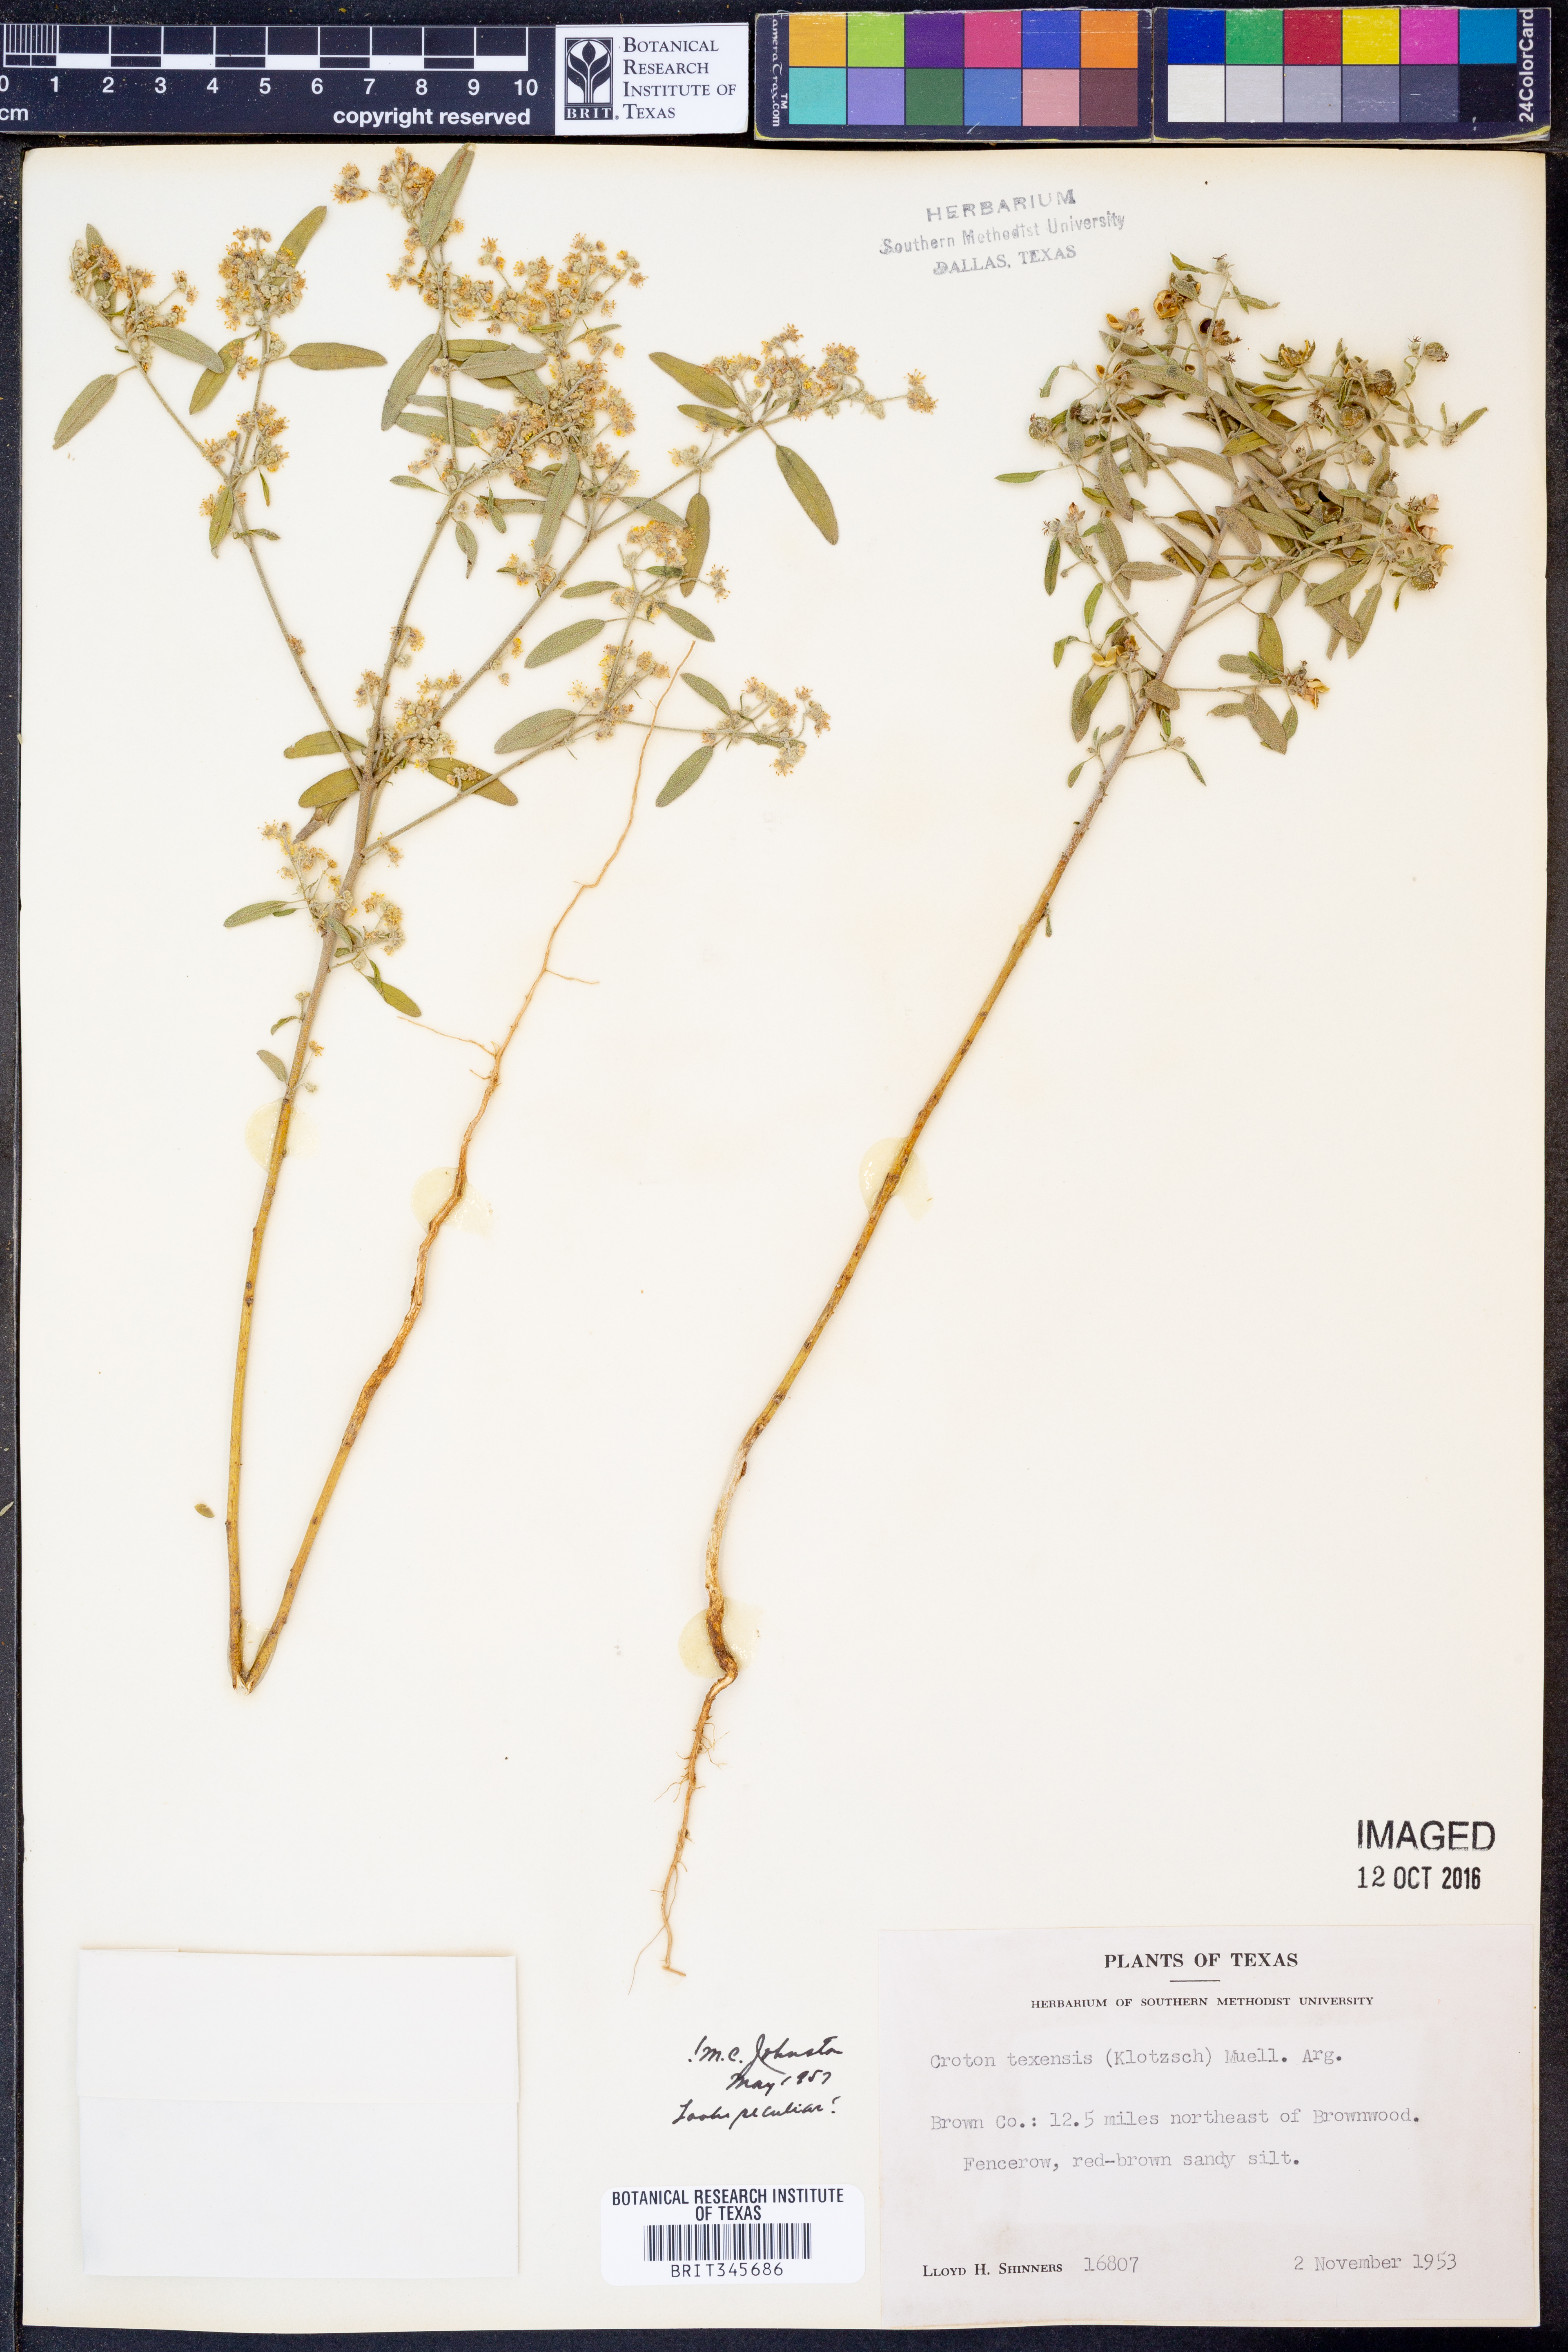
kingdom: Plantae
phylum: Tracheophyta
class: Magnoliopsida
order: Malpighiales
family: Euphorbiaceae
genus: Croton
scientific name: Croton texensis
